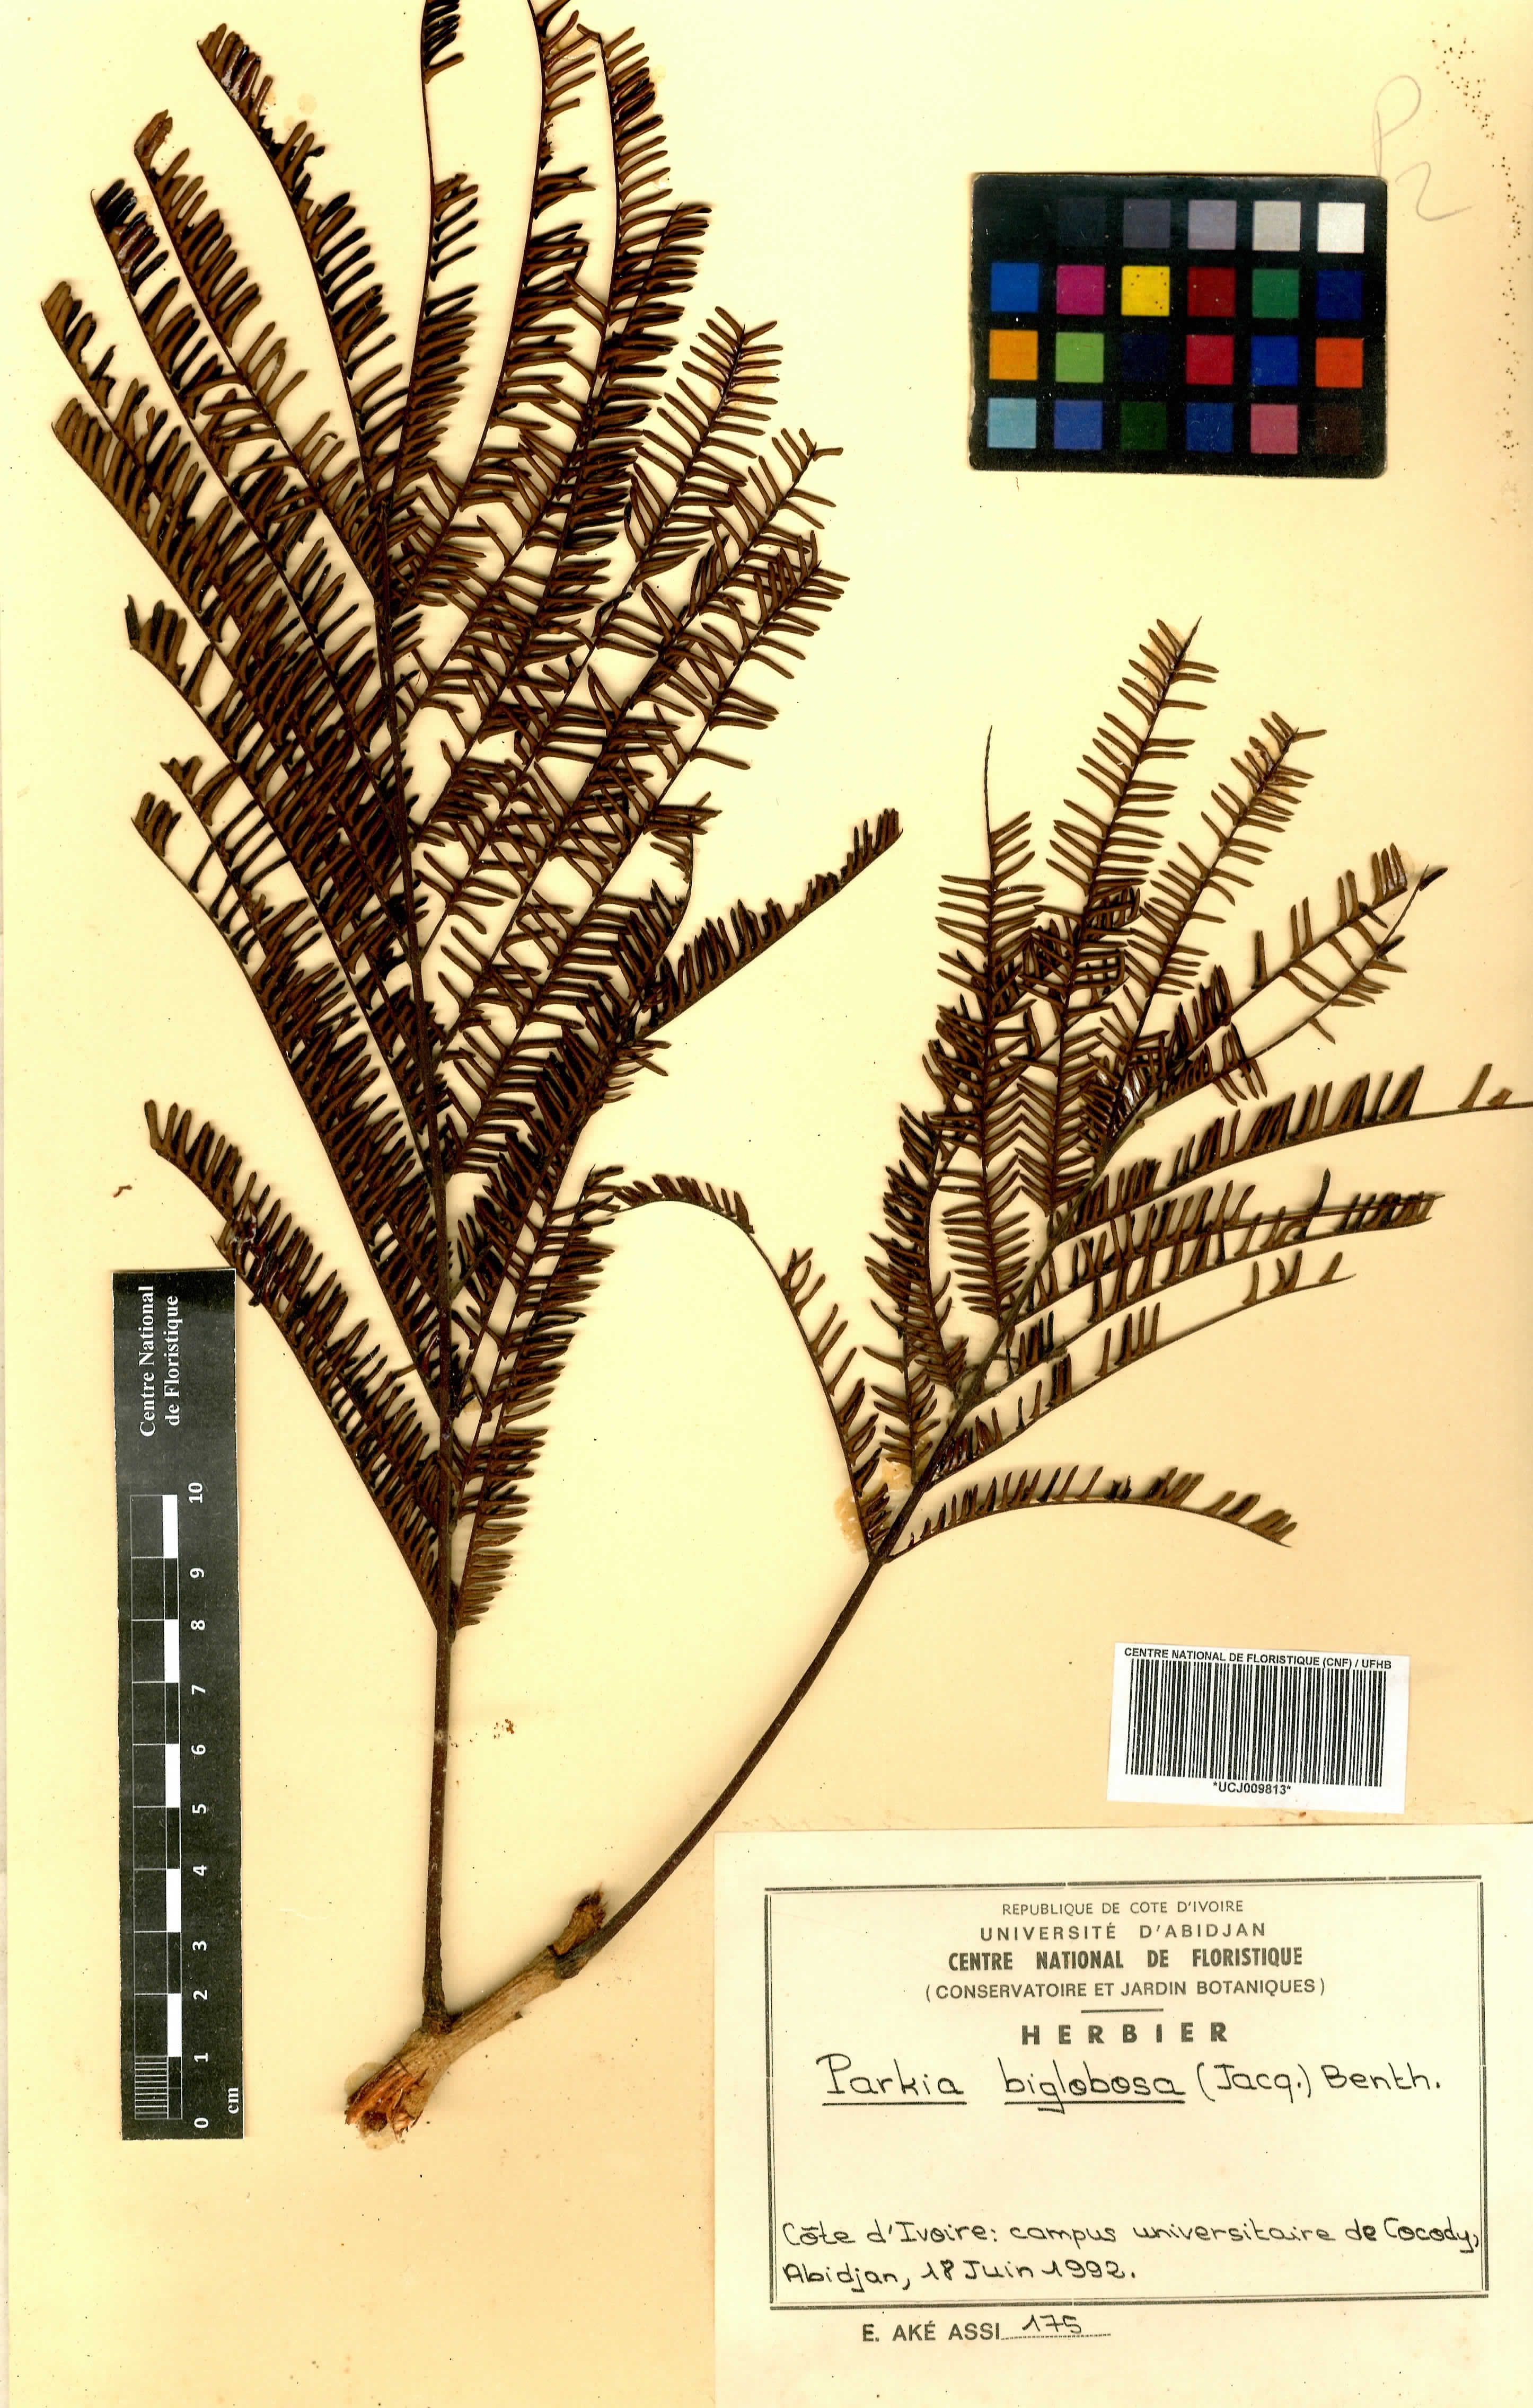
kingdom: Plantae
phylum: Tracheophyta
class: Magnoliopsida
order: Fabales
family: Fabaceae
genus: Parkia
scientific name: Parkia timoriana
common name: Legume
